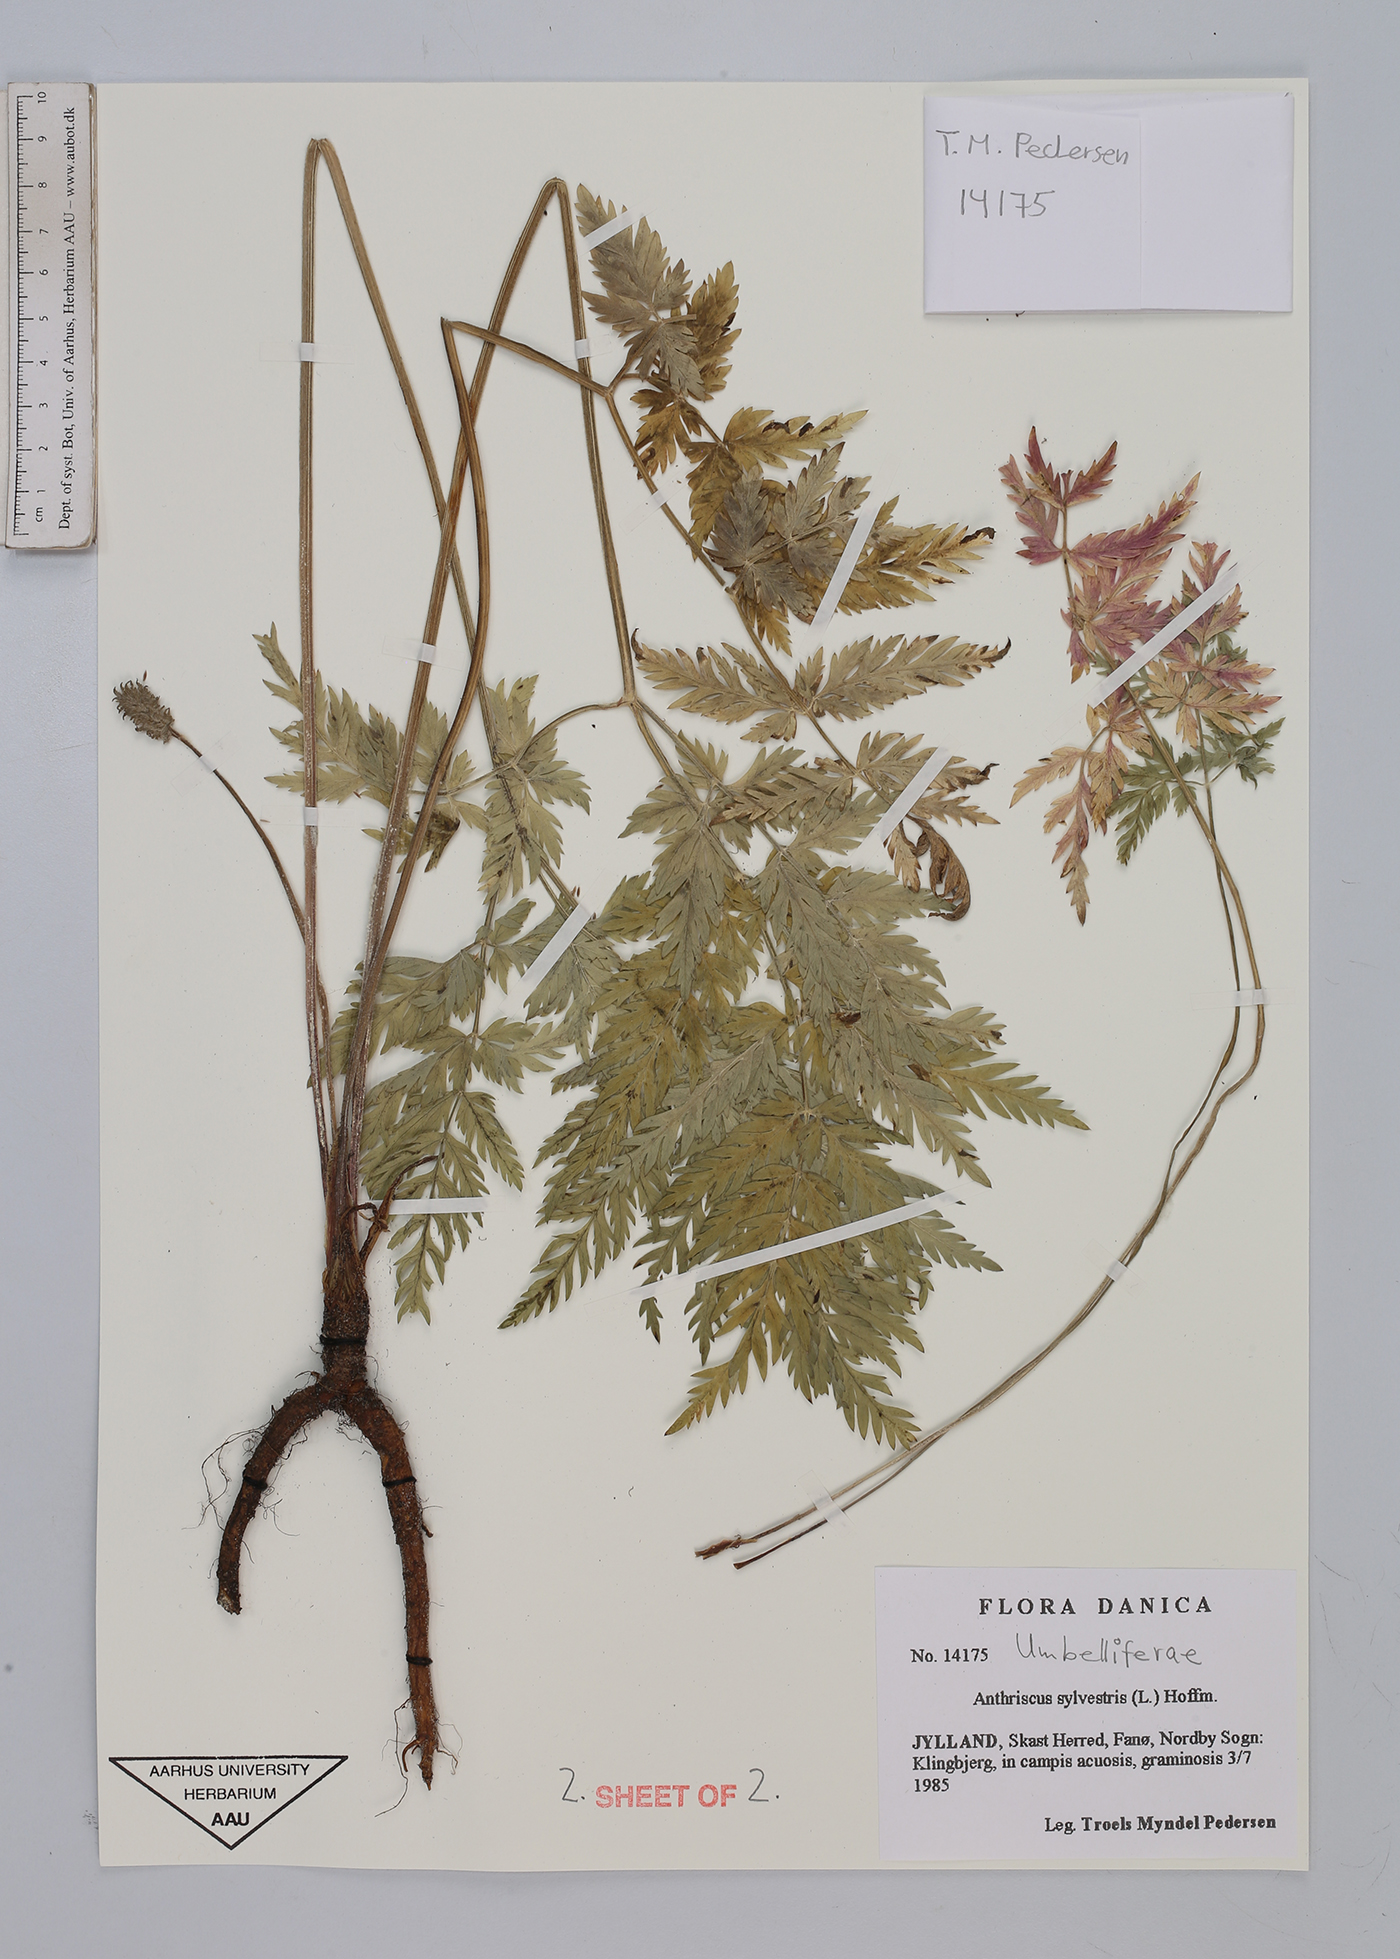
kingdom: Plantae
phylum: Tracheophyta
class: Magnoliopsida
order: Apiales
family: Apiaceae
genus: Anthriscus
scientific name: Anthriscus sylvestris
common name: Cow parsley
